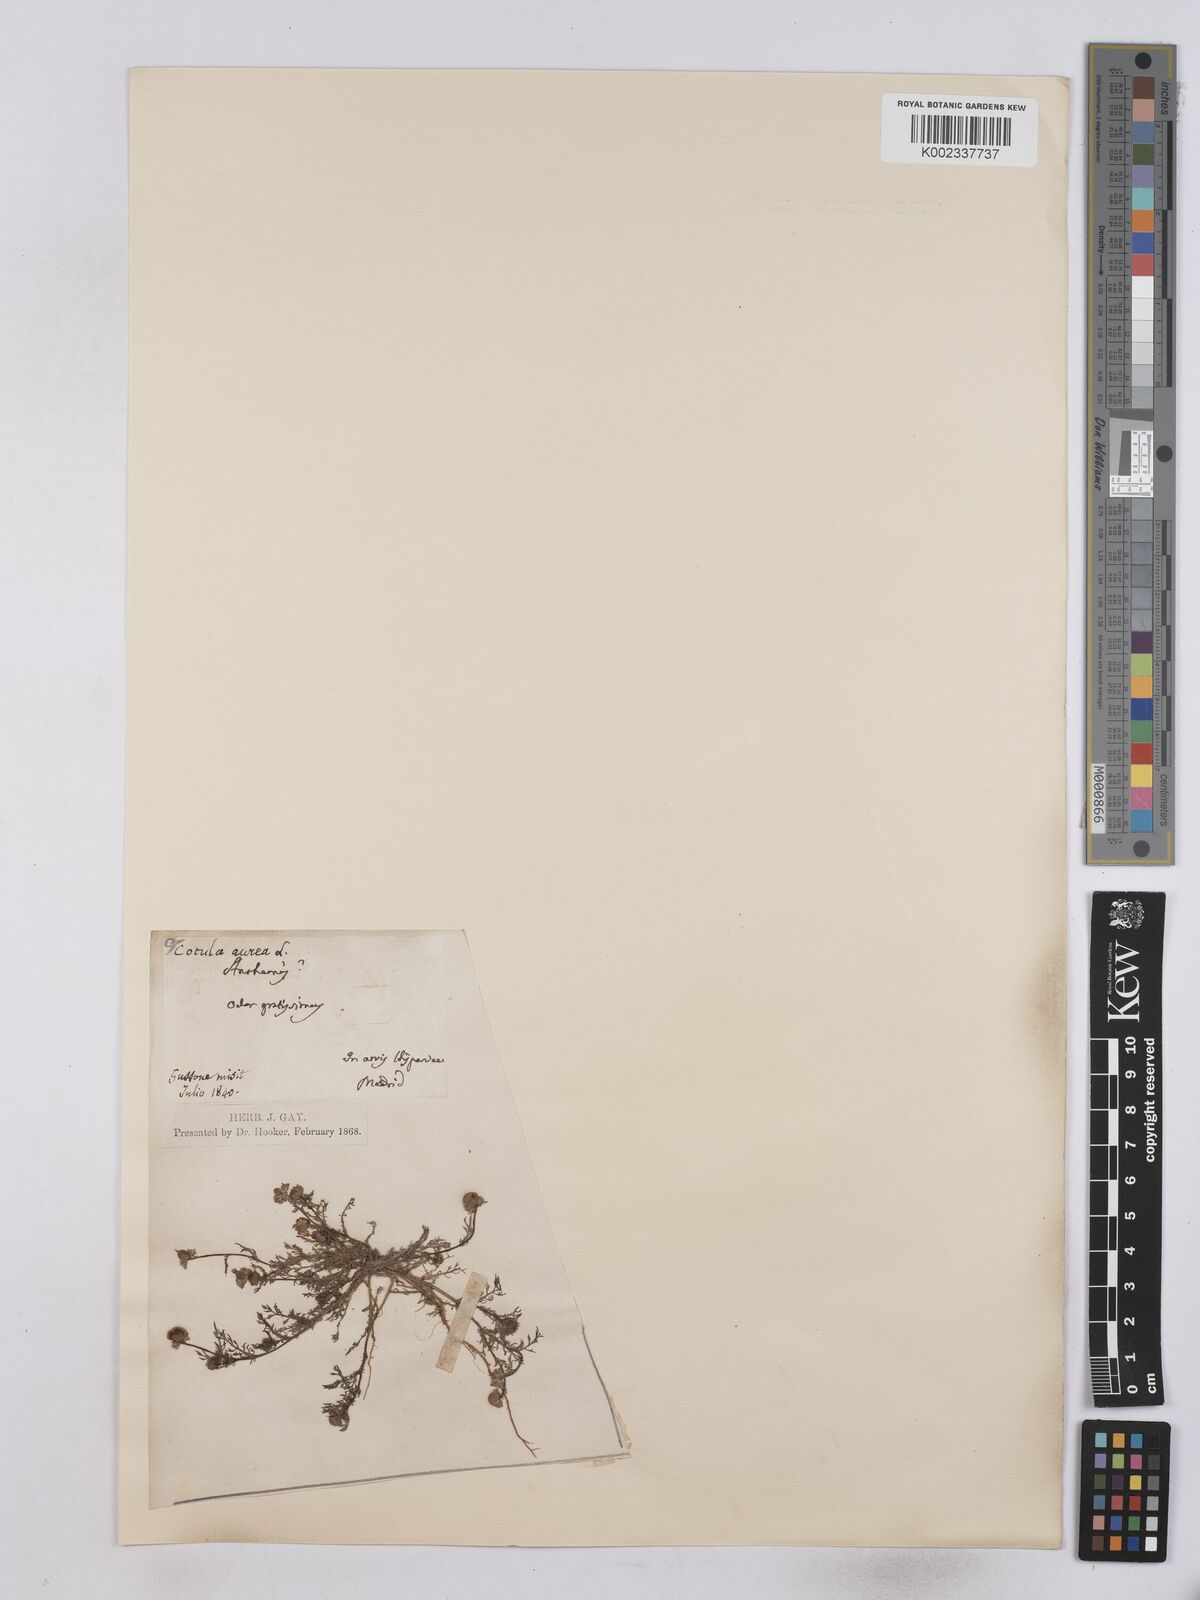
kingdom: Plantae
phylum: Tracheophyta
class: Magnoliopsida
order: Asterales
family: Asteraceae
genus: Matricaria
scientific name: Matricaria aurea
